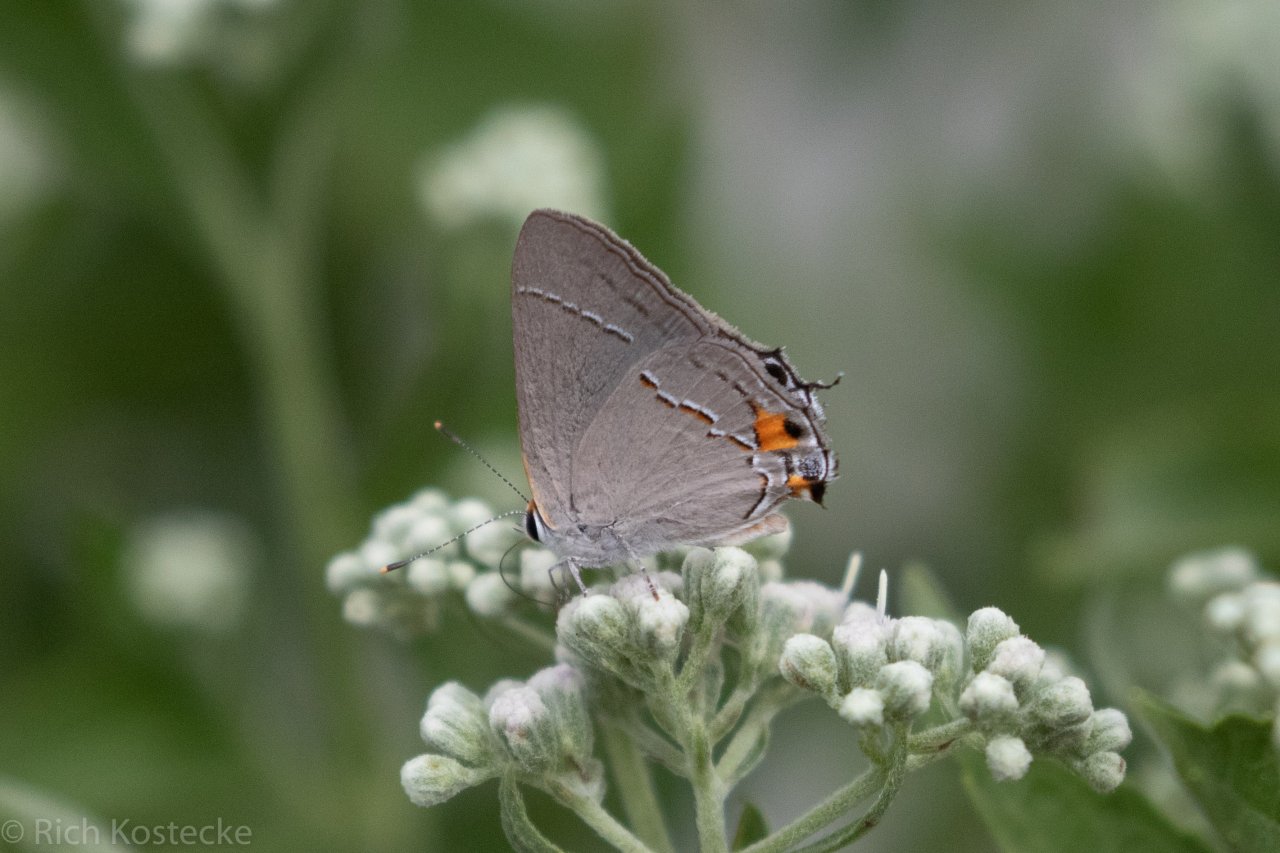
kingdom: Animalia
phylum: Arthropoda
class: Insecta
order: Lepidoptera
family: Lycaenidae
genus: Strymon
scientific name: Strymon melinus
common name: Gray Hairstreak
